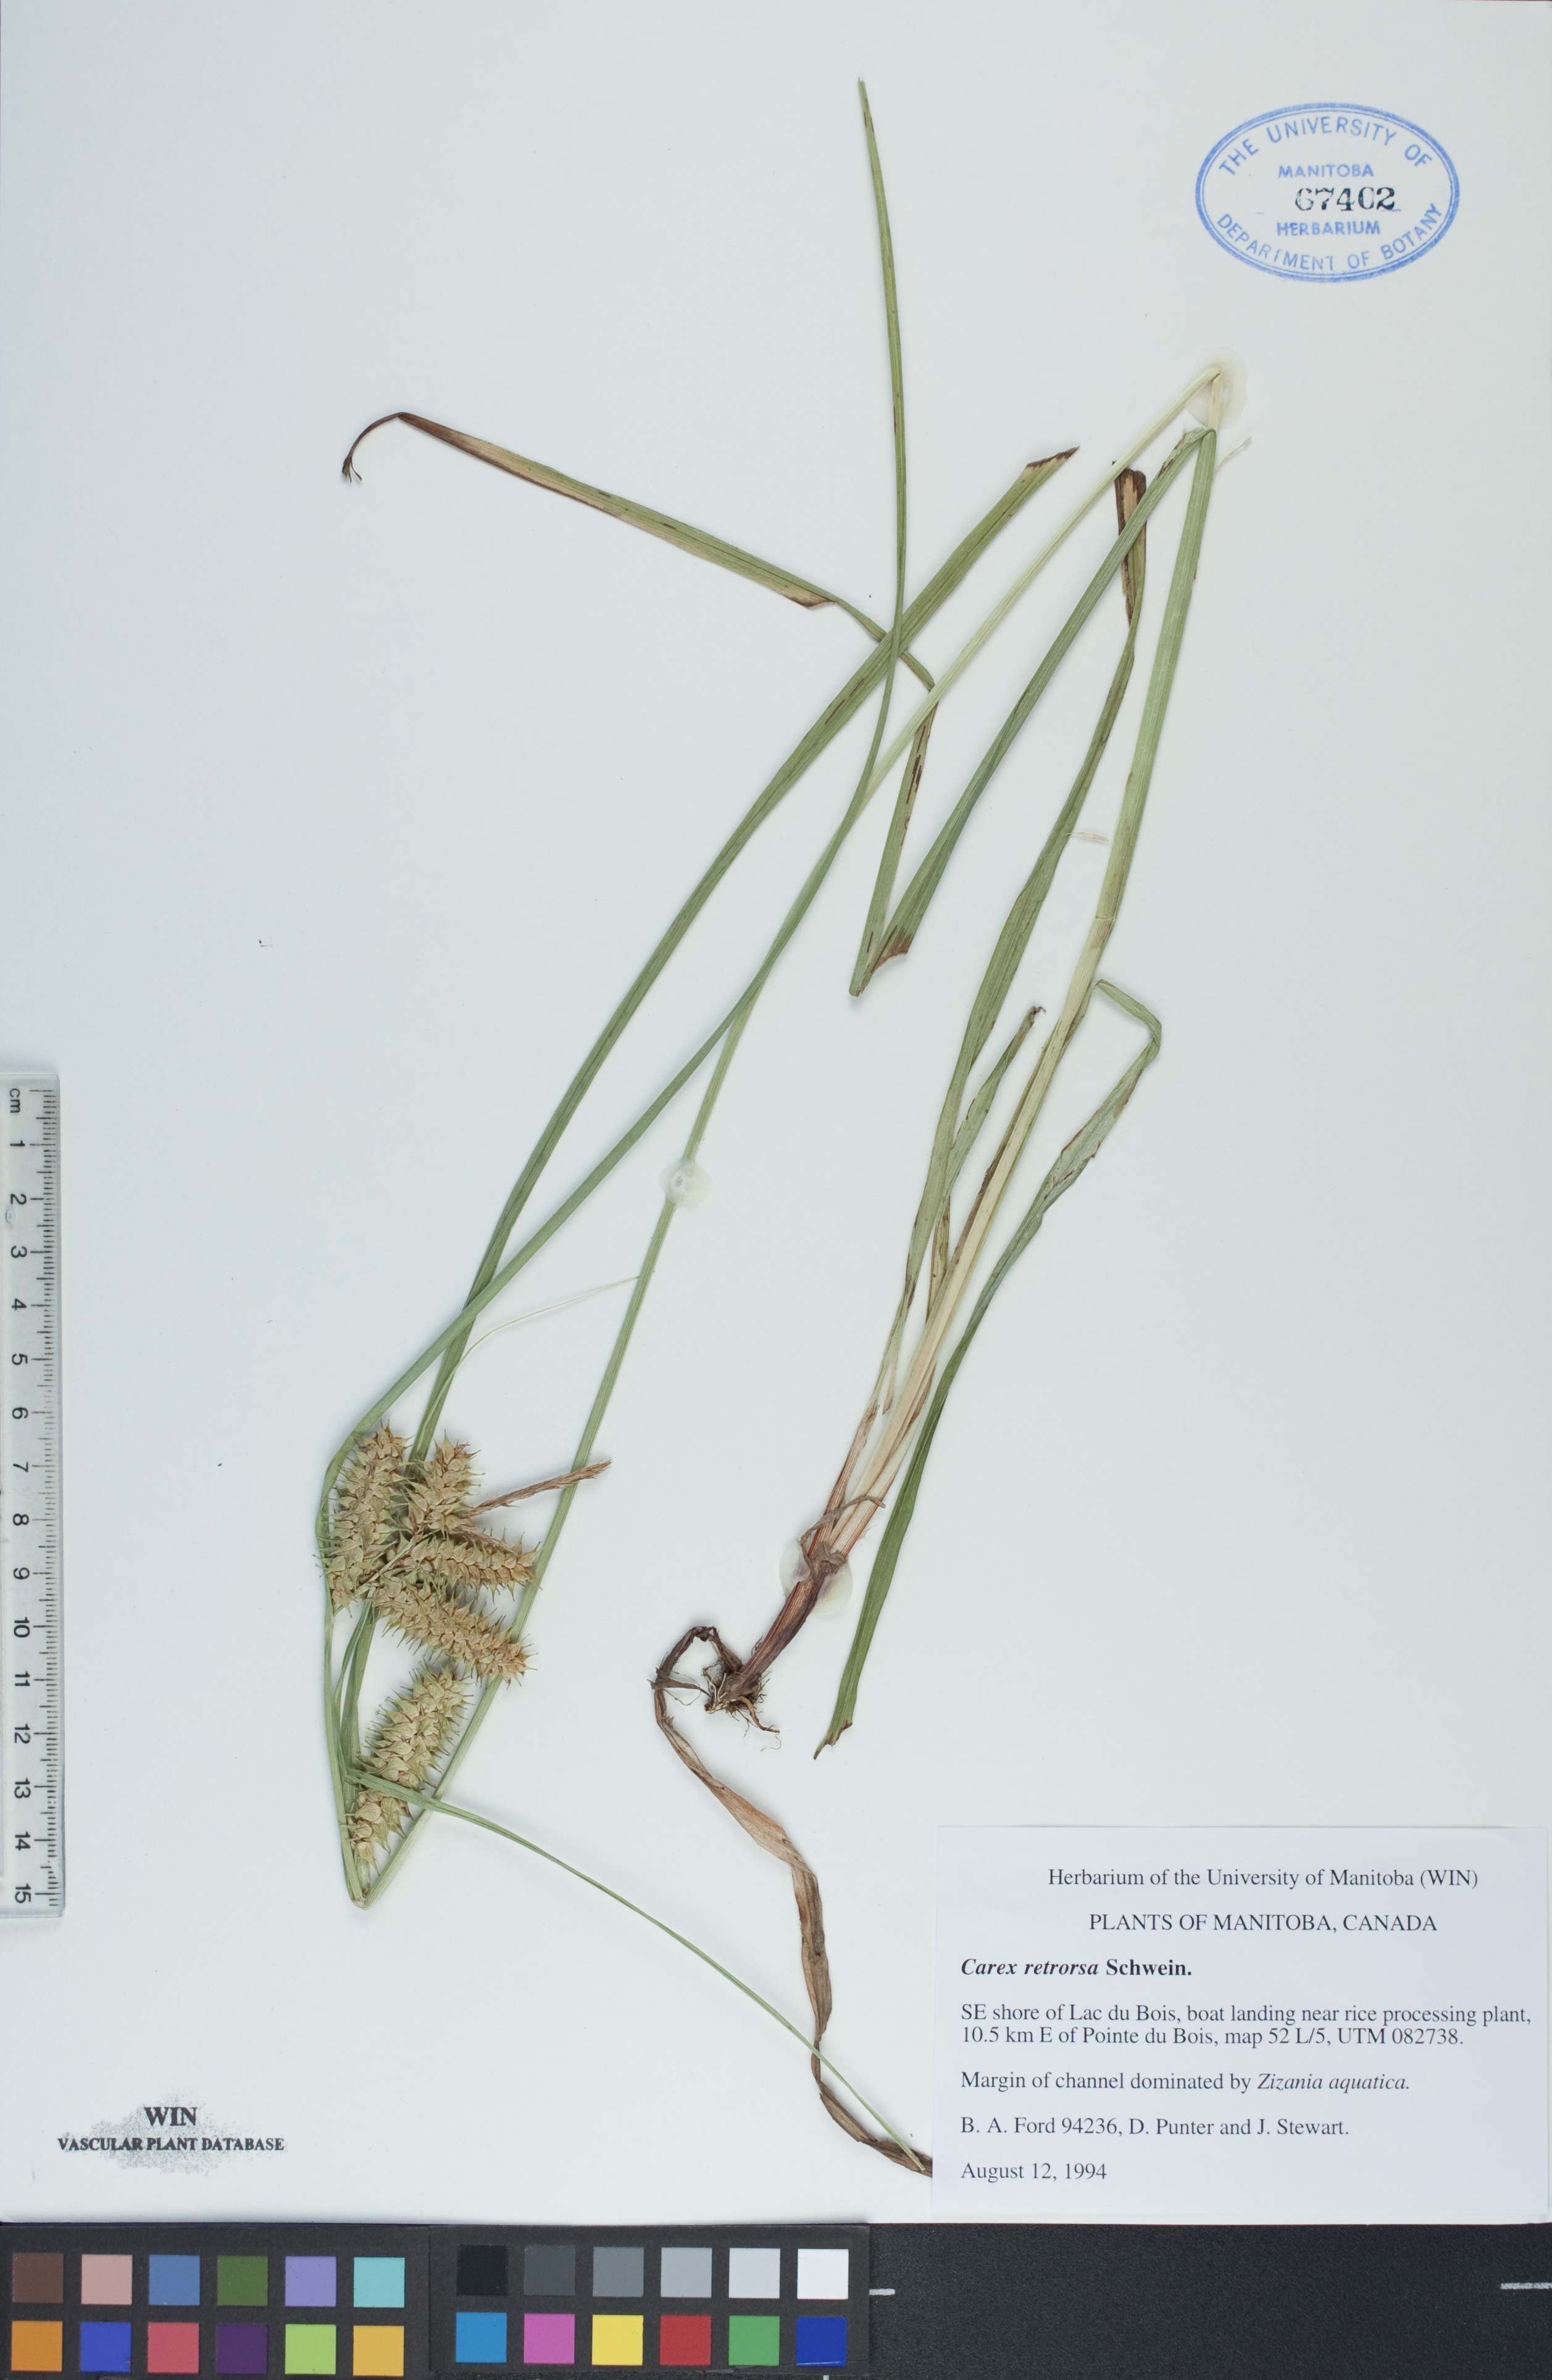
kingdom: Plantae
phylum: Tracheophyta
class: Liliopsida
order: Poales
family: Cyperaceae
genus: Carex
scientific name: Carex retrorsa
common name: Knot-sheath sedge
